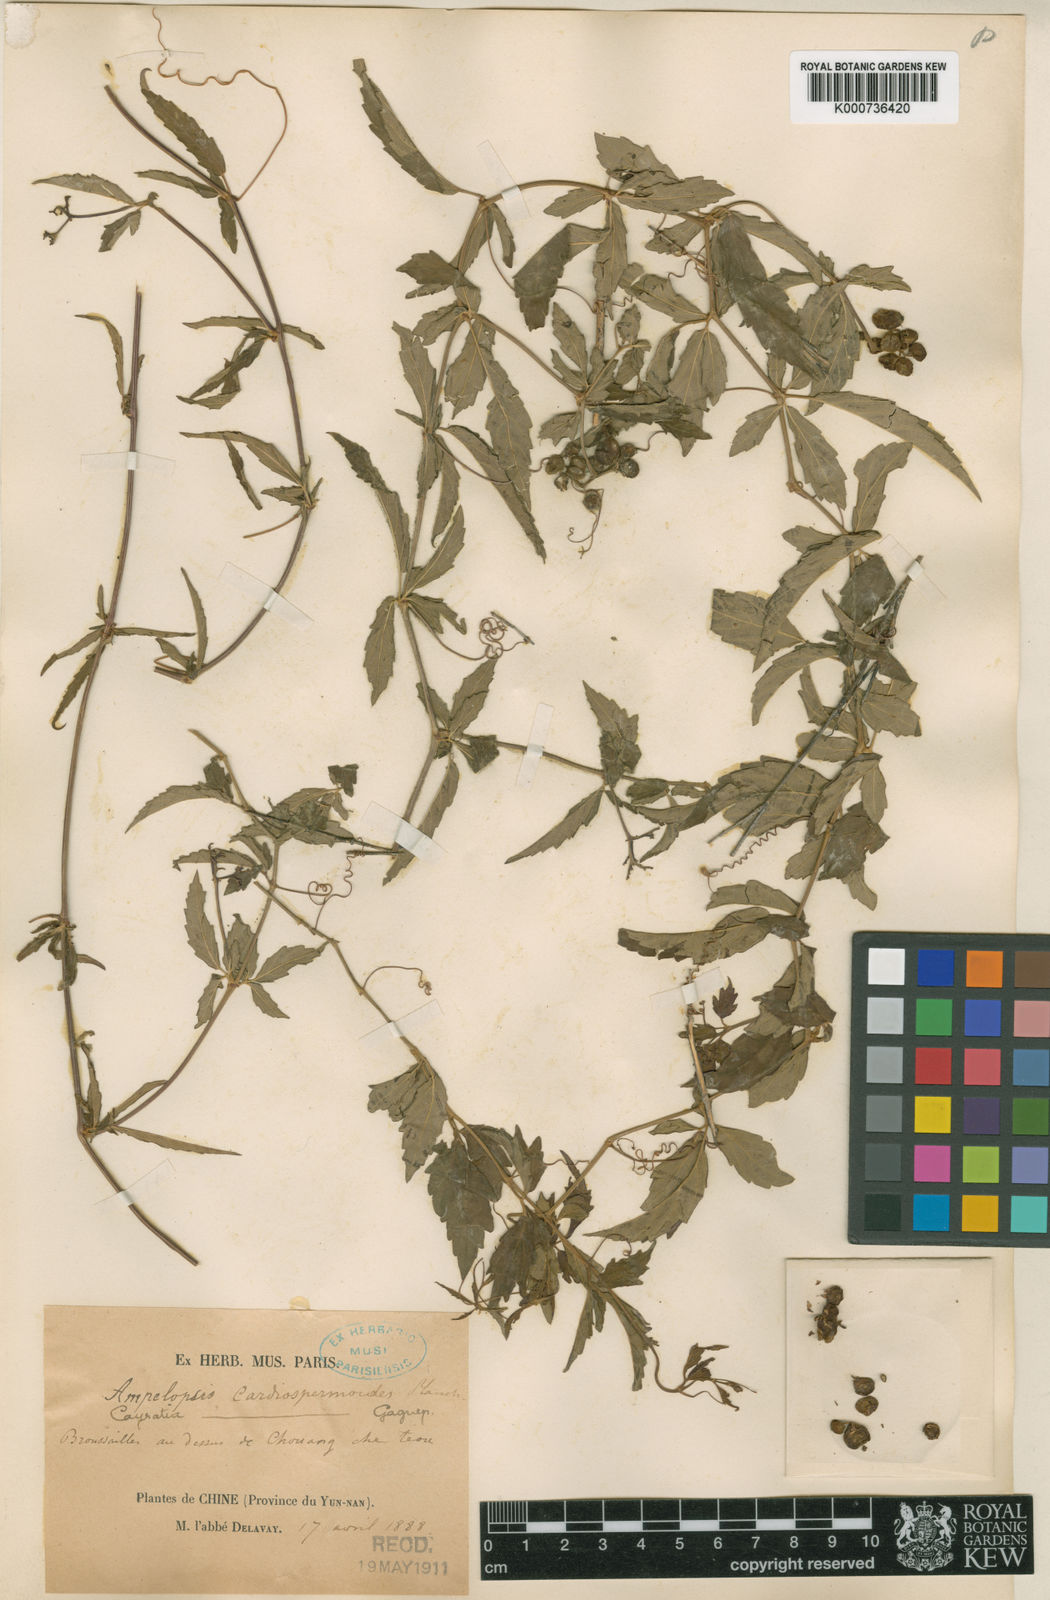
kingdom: Plantae
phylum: Tracheophyta
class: Magnoliopsida
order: Vitales
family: Vitaceae
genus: Causonis
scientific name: Causonis cardiospermoides
